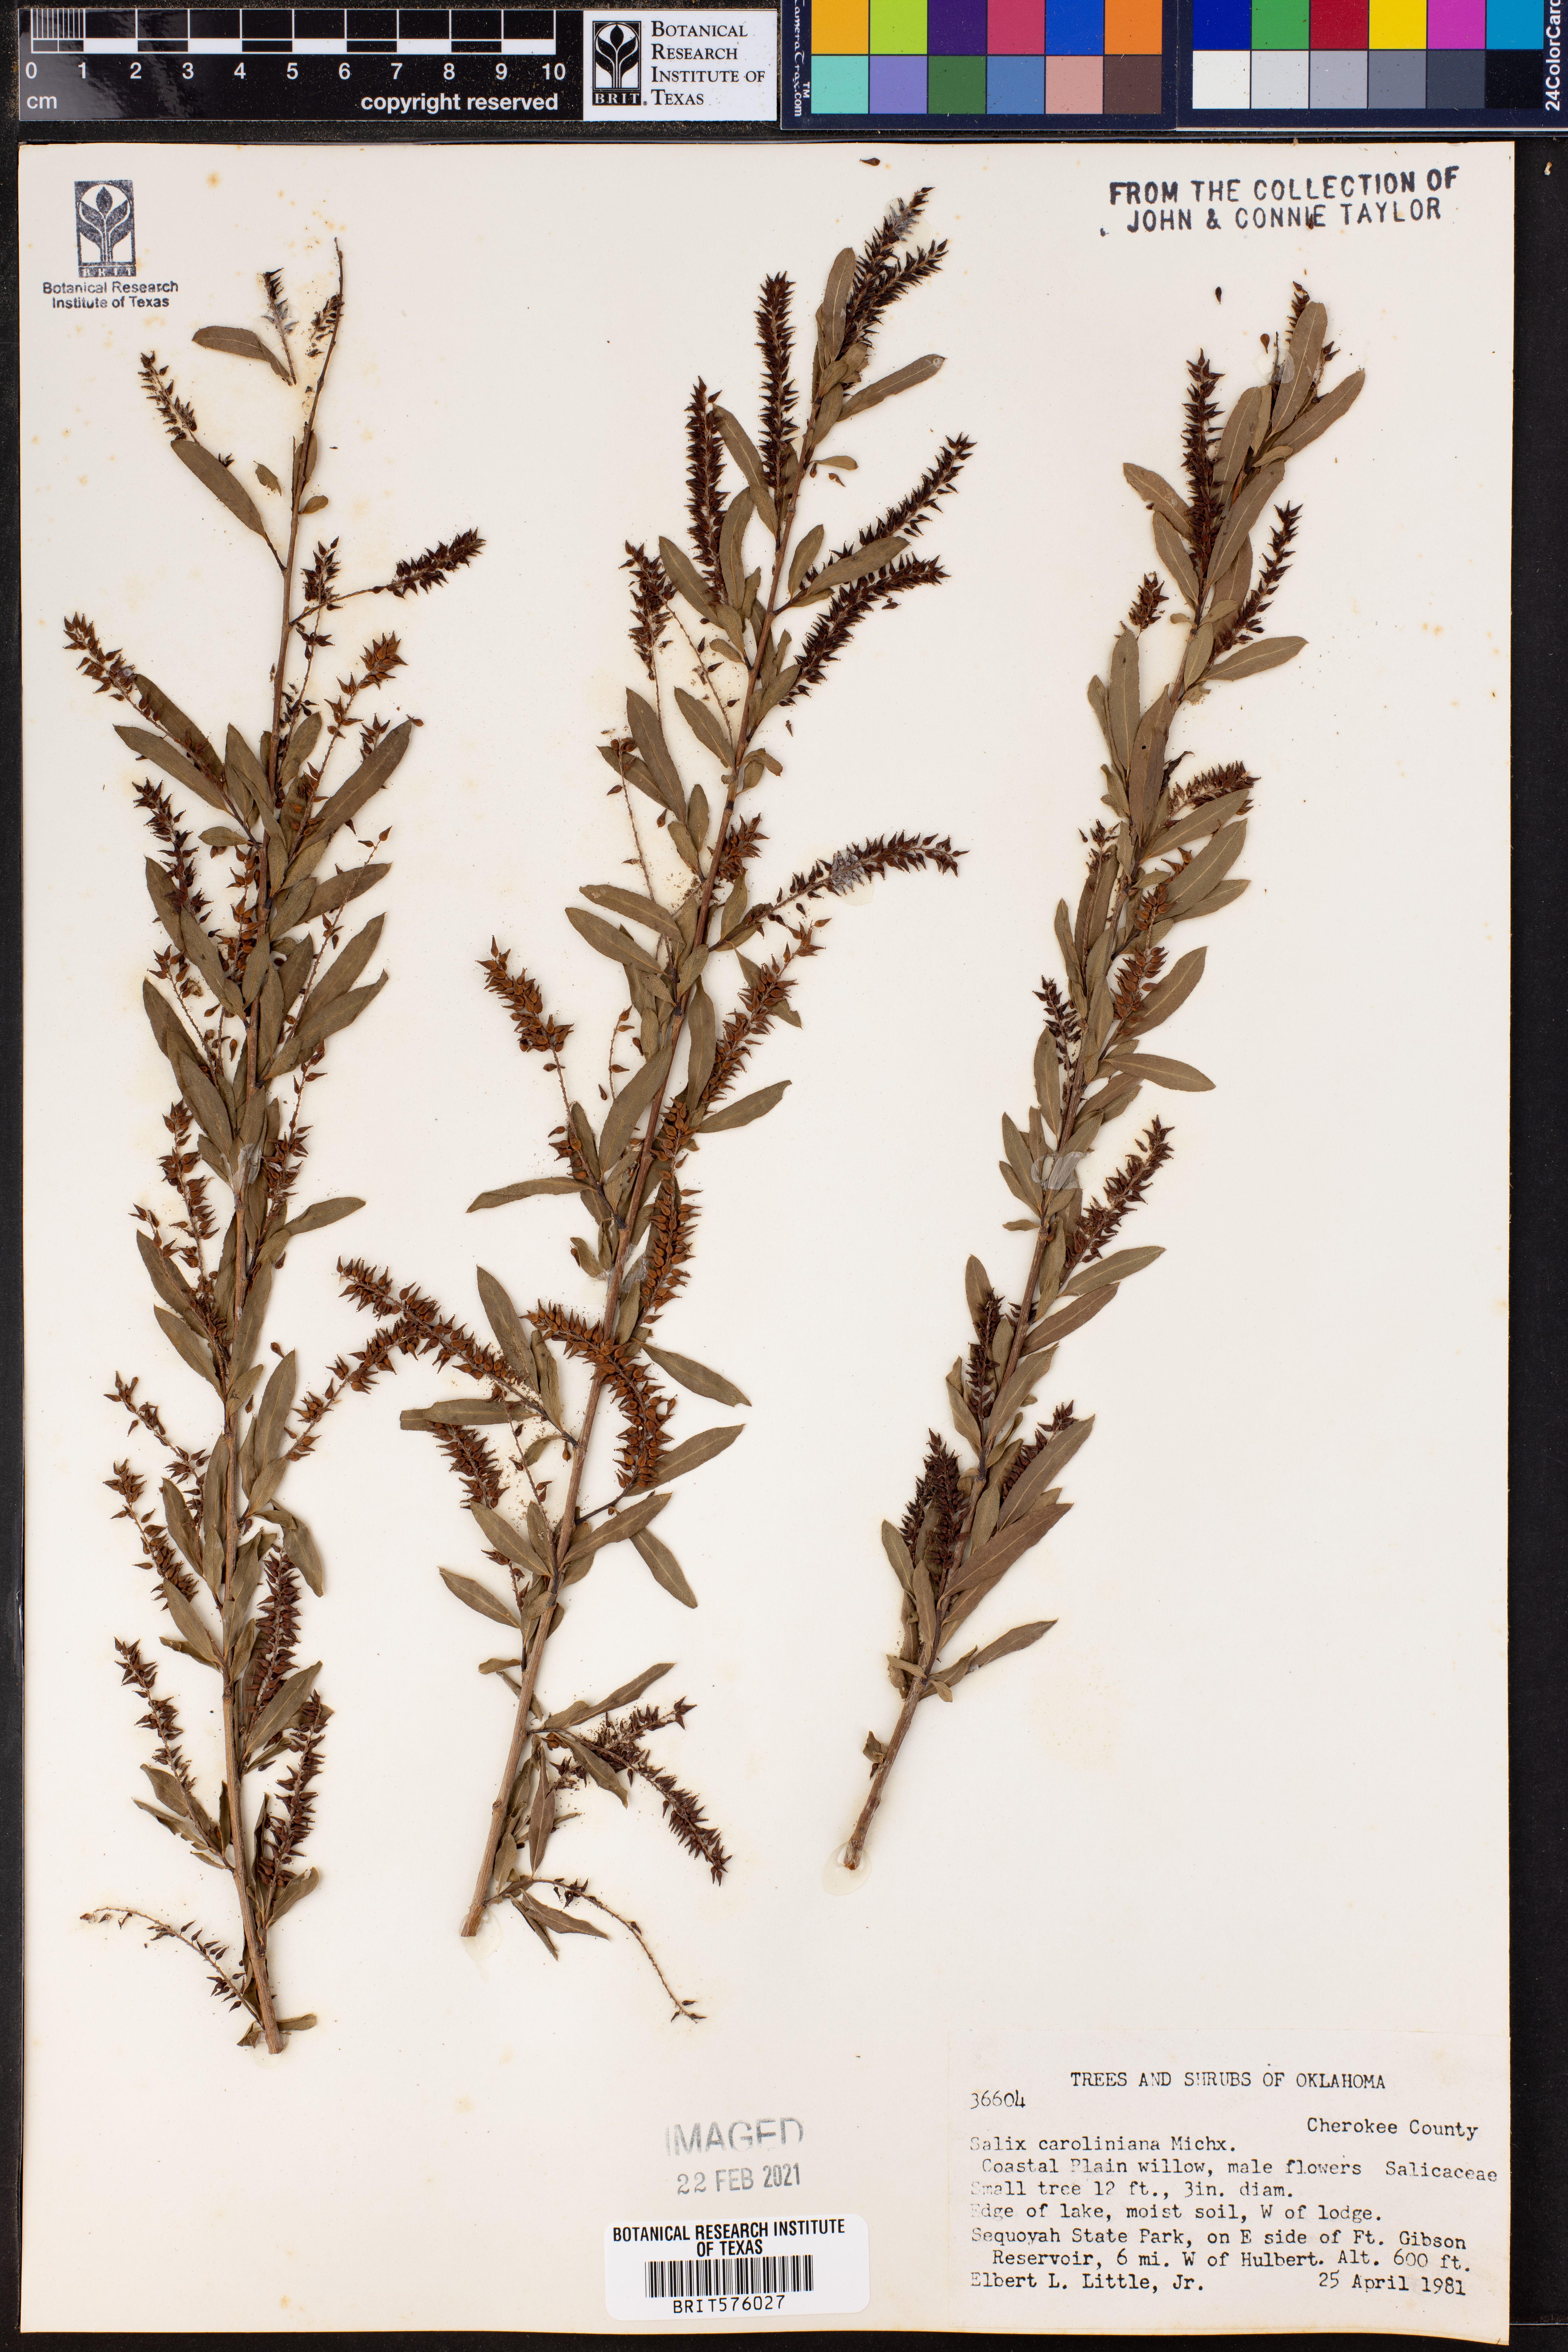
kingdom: Plantae
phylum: Tracheophyta
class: Magnoliopsida
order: Malpighiales
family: Salicaceae
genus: Salix
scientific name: Salix caroliniana
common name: Carolina willow
